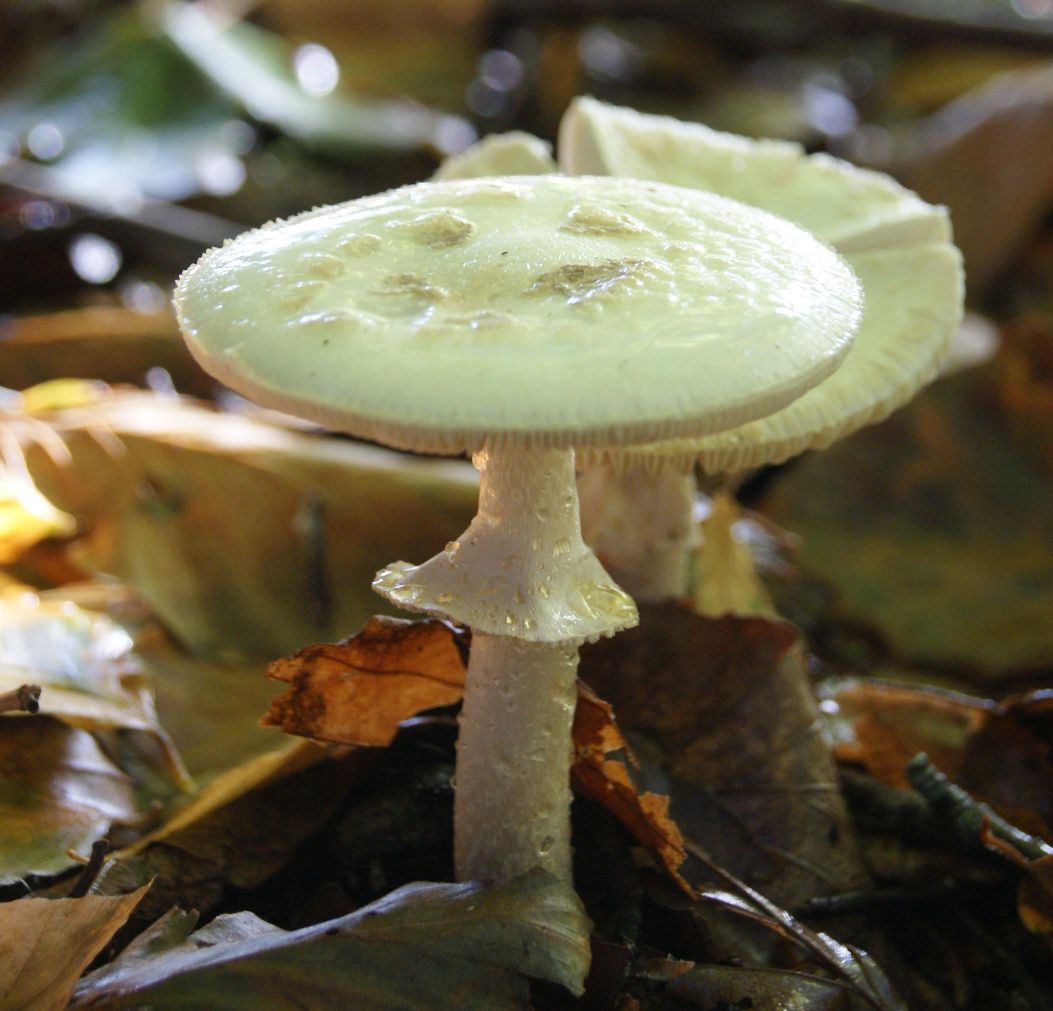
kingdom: Fungi
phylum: Basidiomycota
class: Agaricomycetes
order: Agaricales
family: Amanitaceae
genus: Amanita
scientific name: Amanita citrina
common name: kugleknoldet fluesvamp
